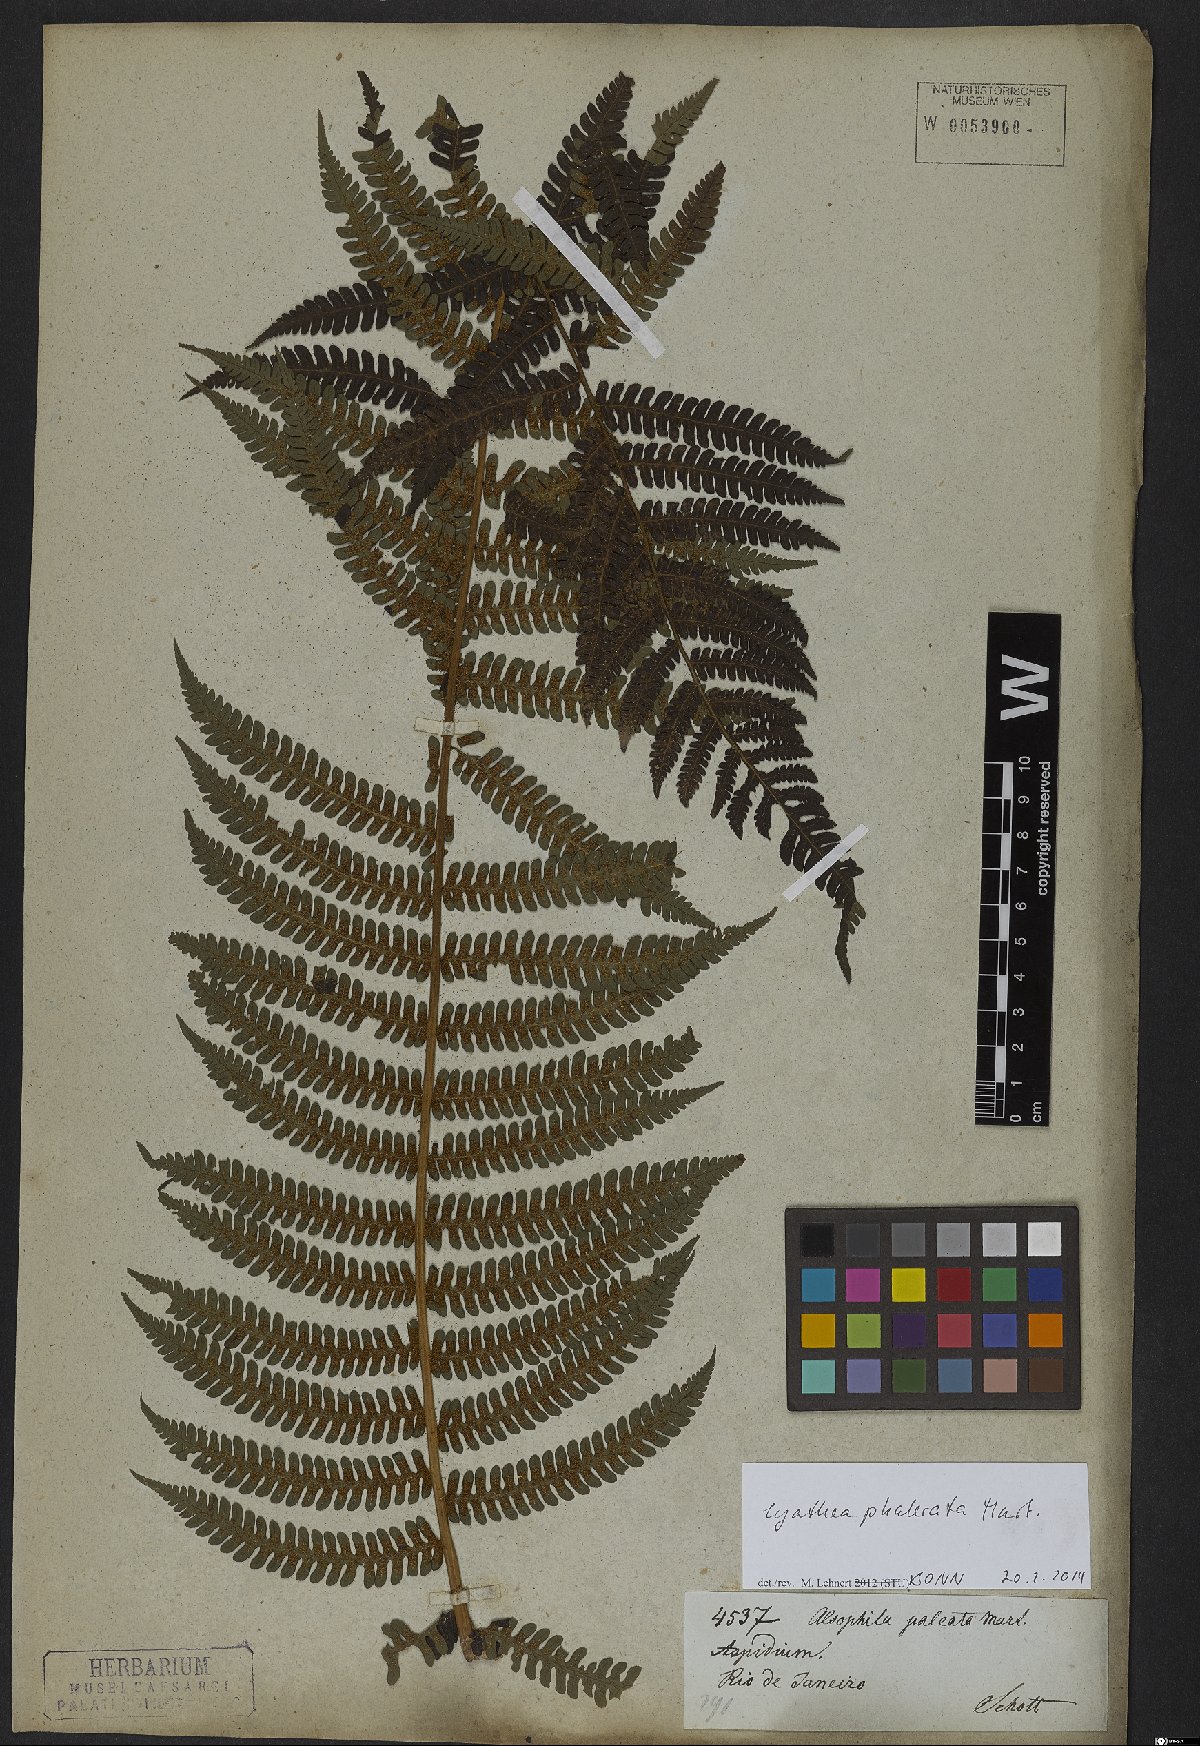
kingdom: Plantae
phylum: Tracheophyta
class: Polypodiopsida
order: Cyatheales
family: Cyatheaceae
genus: Cyathea
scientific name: Cyathea phalerata
